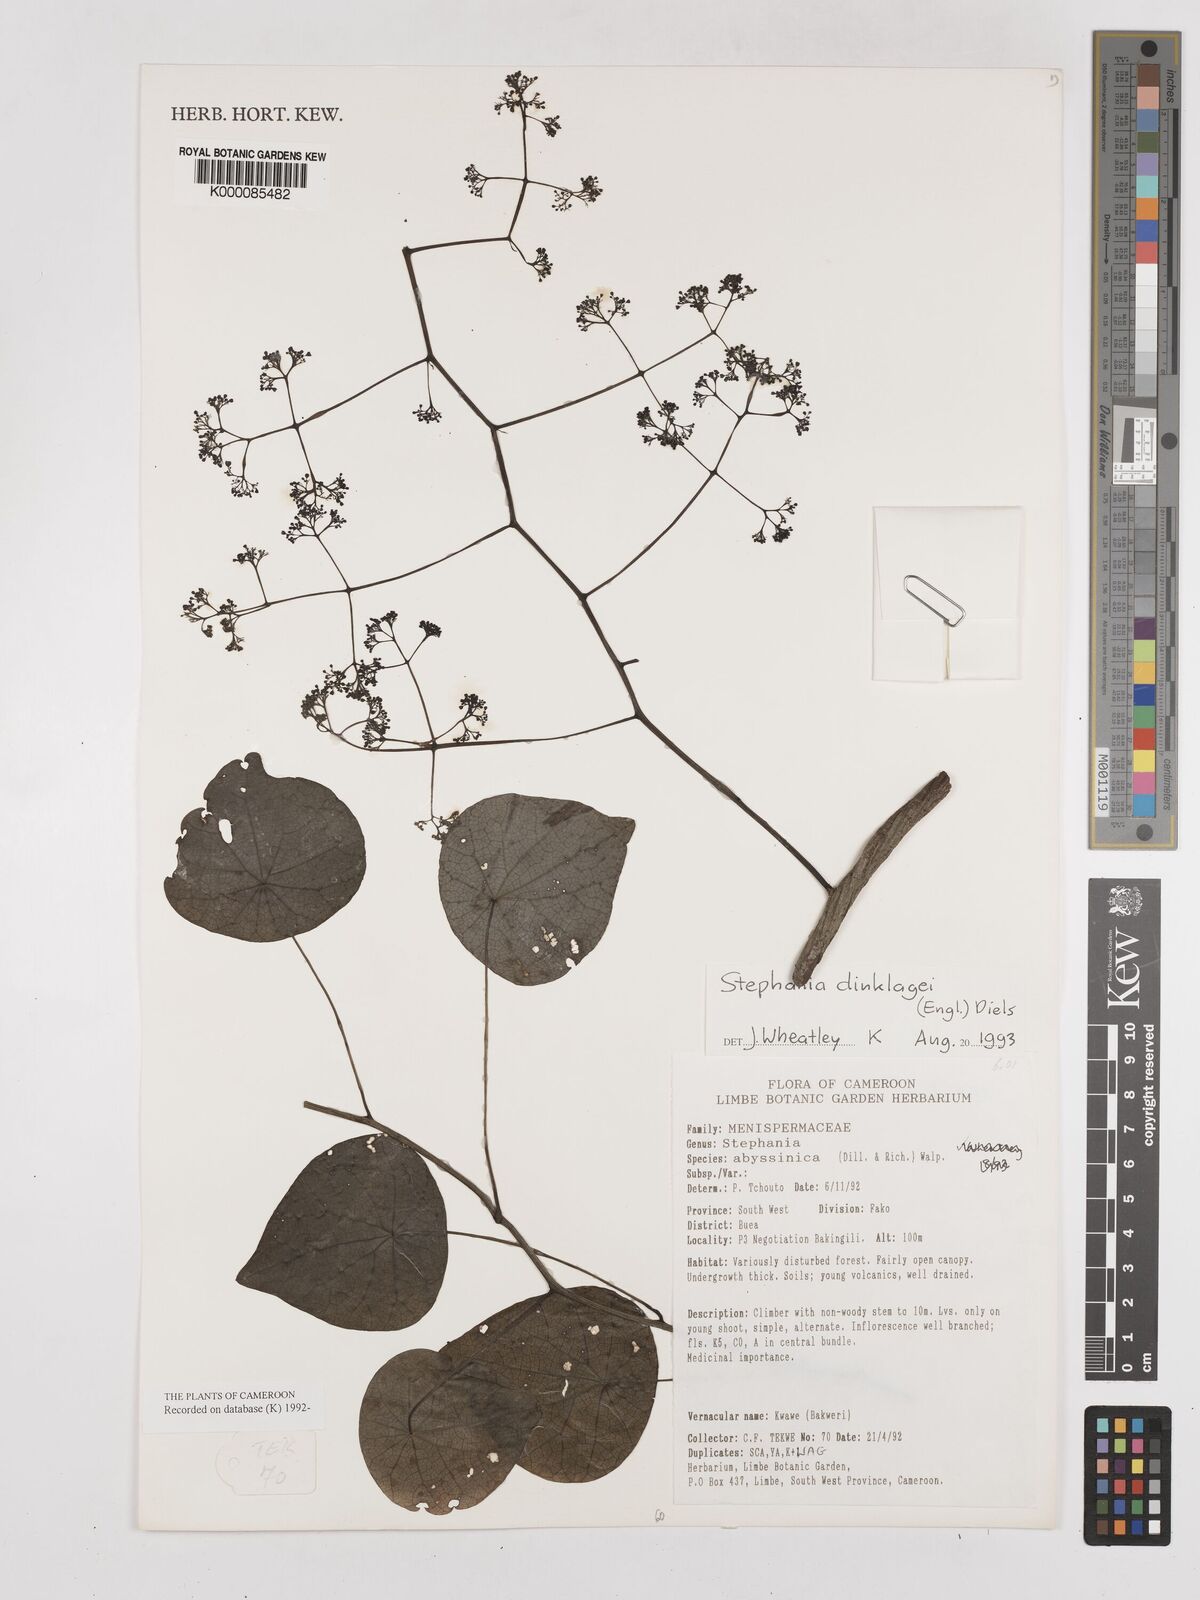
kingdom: Plantae
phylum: Tracheophyta
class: Magnoliopsida
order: Ranunculales
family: Menispermaceae
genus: Stephania
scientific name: Stephania dinklagei
